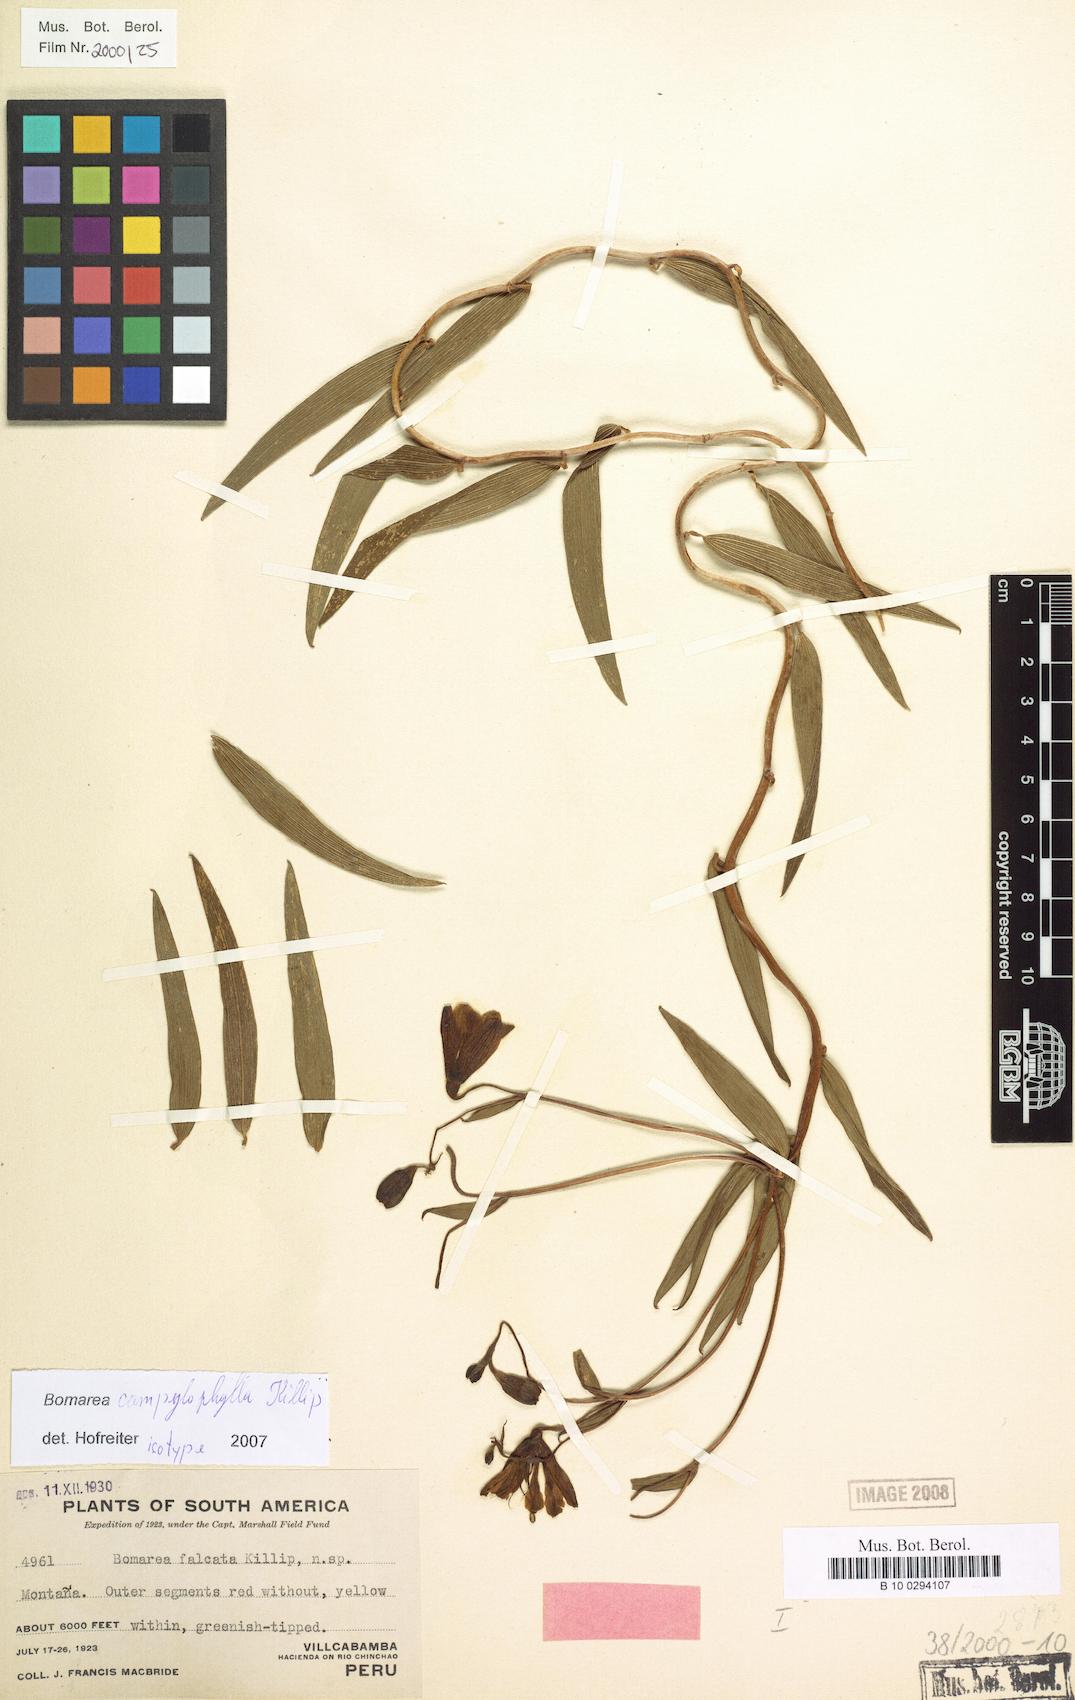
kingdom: Plantae
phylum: Tracheophyta
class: Liliopsida
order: Liliales
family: Alstroemeriaceae
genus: Bomarea
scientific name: Bomarea campylophylla
